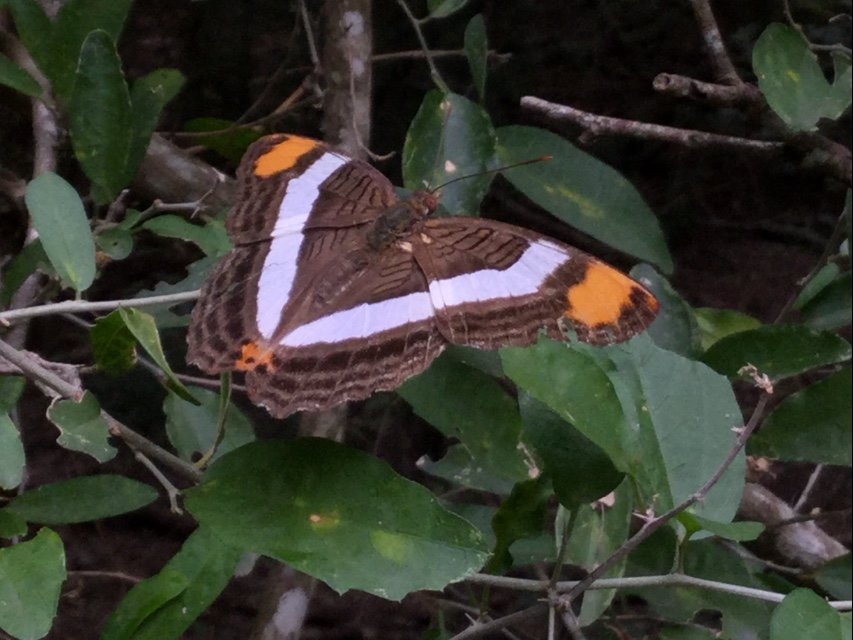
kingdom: Animalia
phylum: Arthropoda
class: Insecta
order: Lepidoptera
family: Nymphalidae
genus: Limenitis
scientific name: Limenitis fessonia
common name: Band-celled Sister
